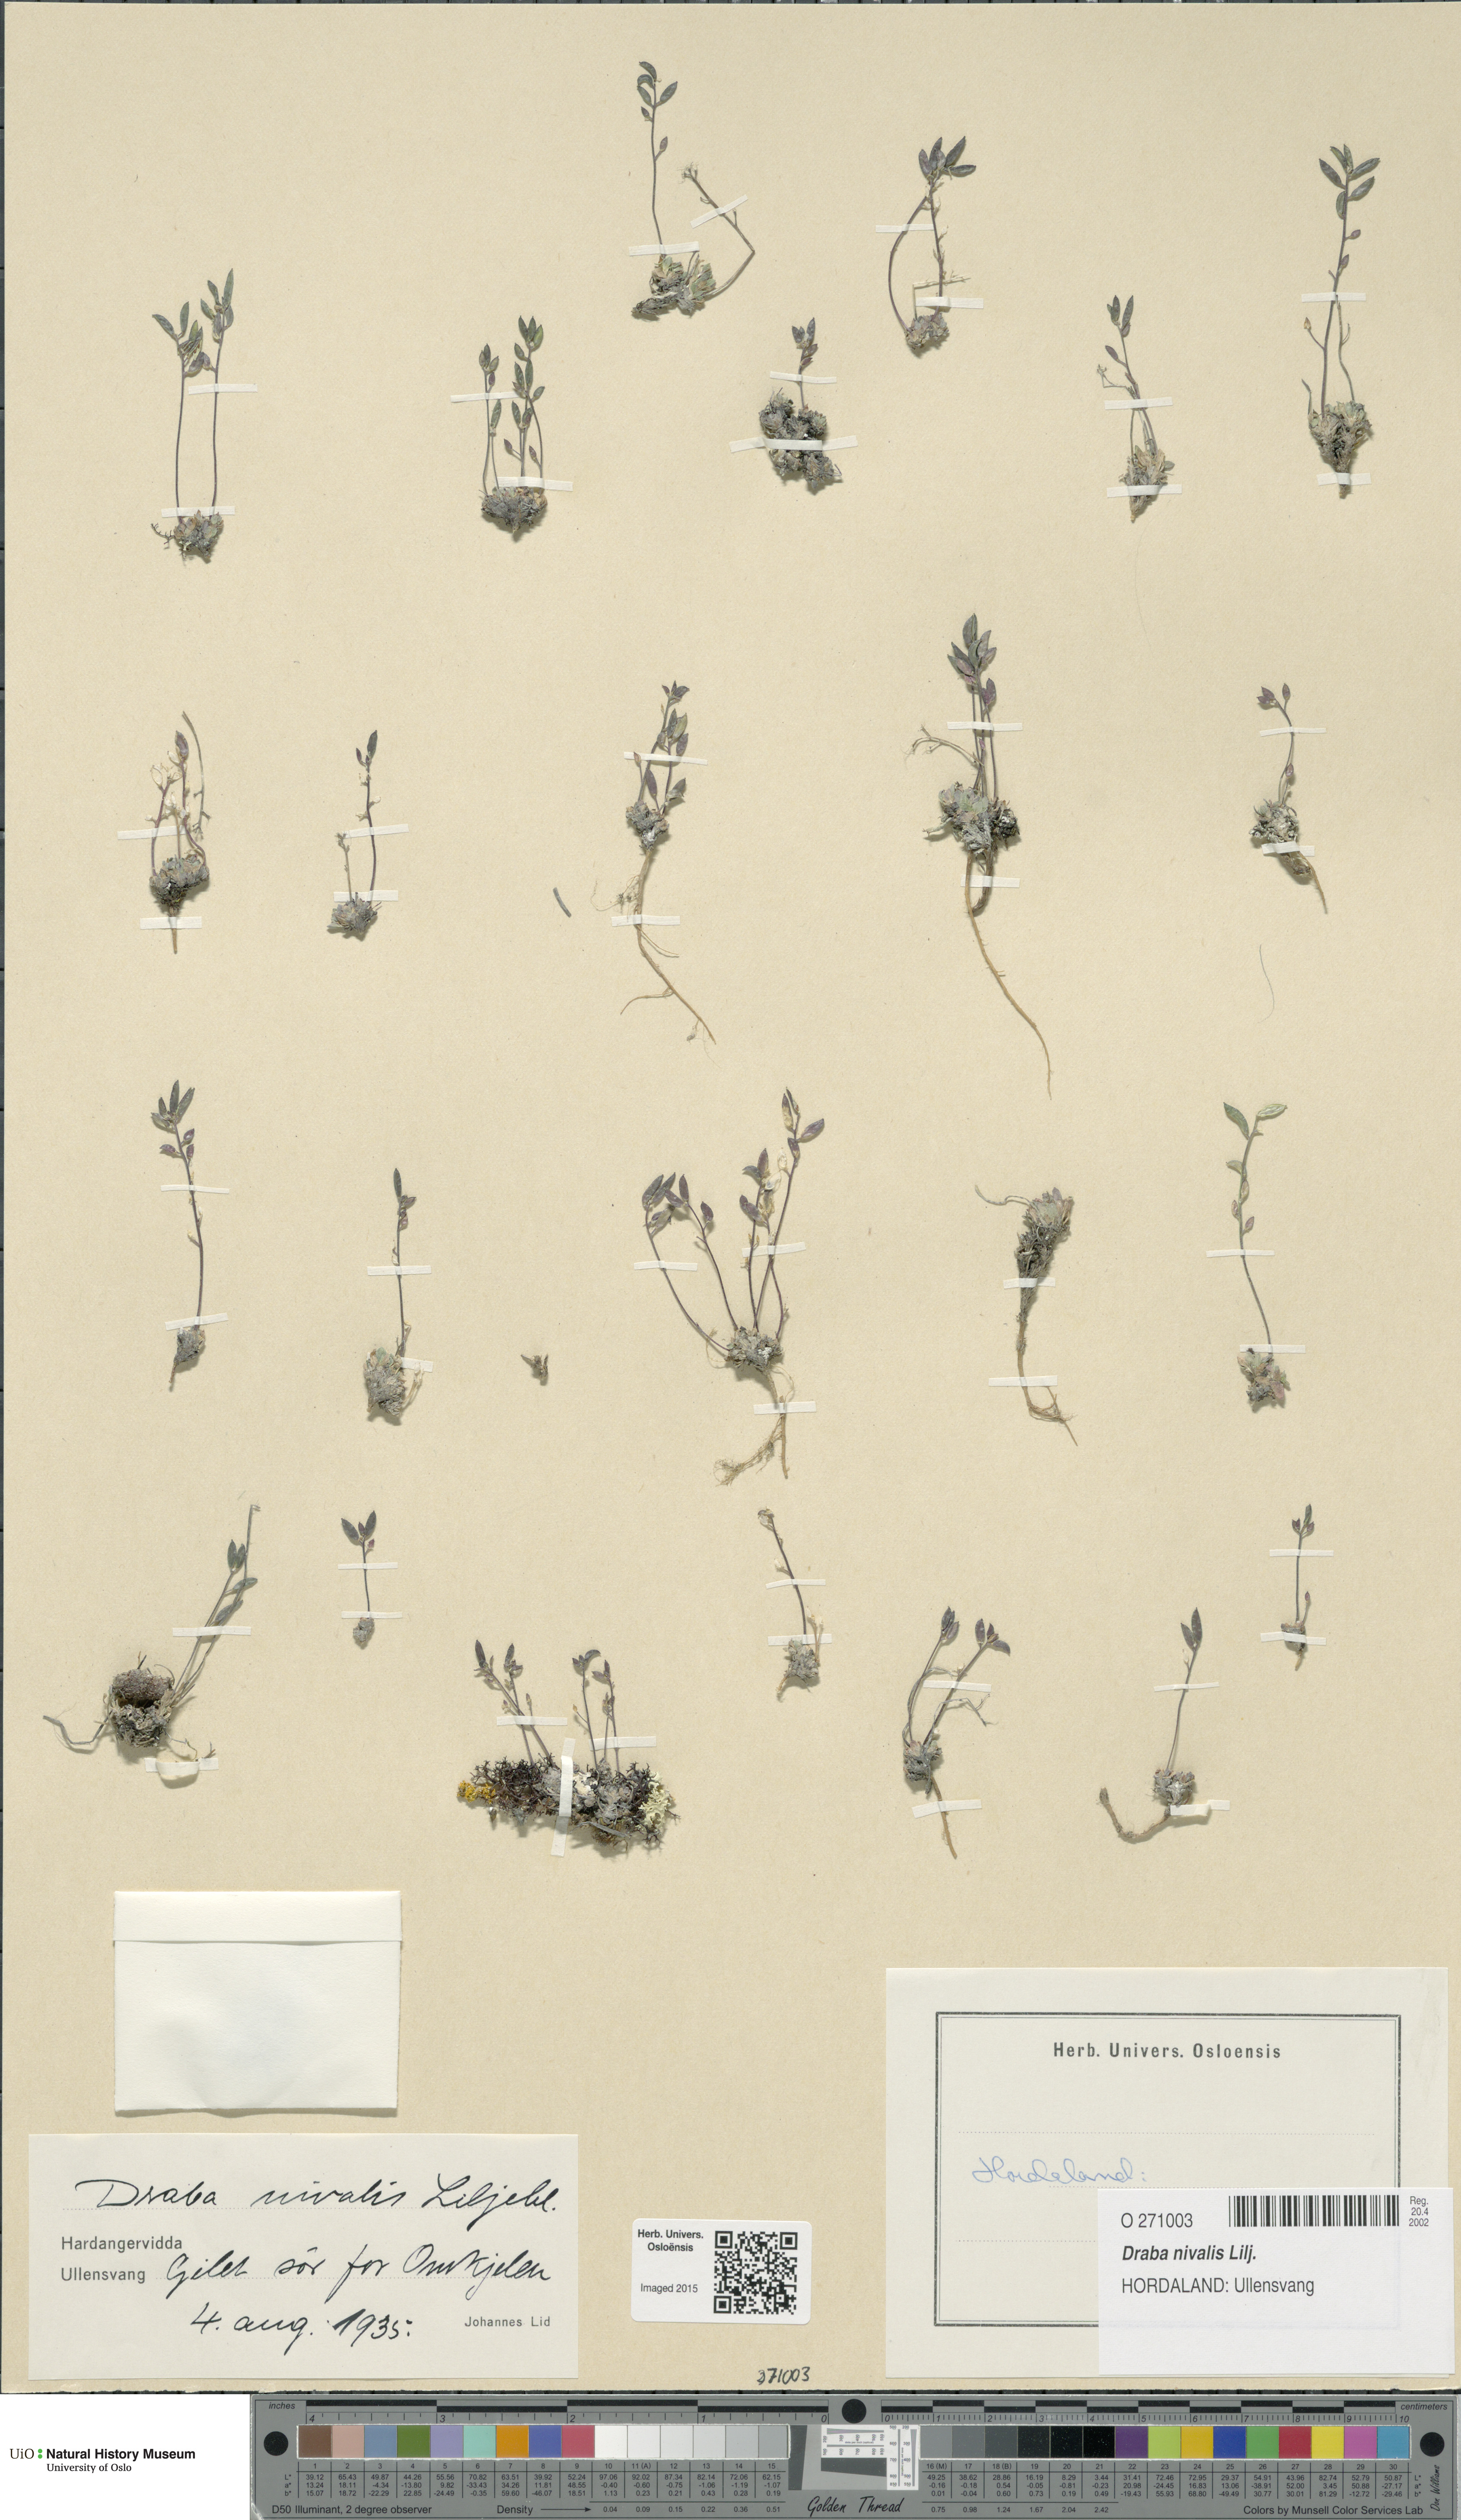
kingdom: Plantae
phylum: Tracheophyta
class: Magnoliopsida
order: Brassicales
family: Brassicaceae
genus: Draba
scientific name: Draba nivalis
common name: Snow draba
